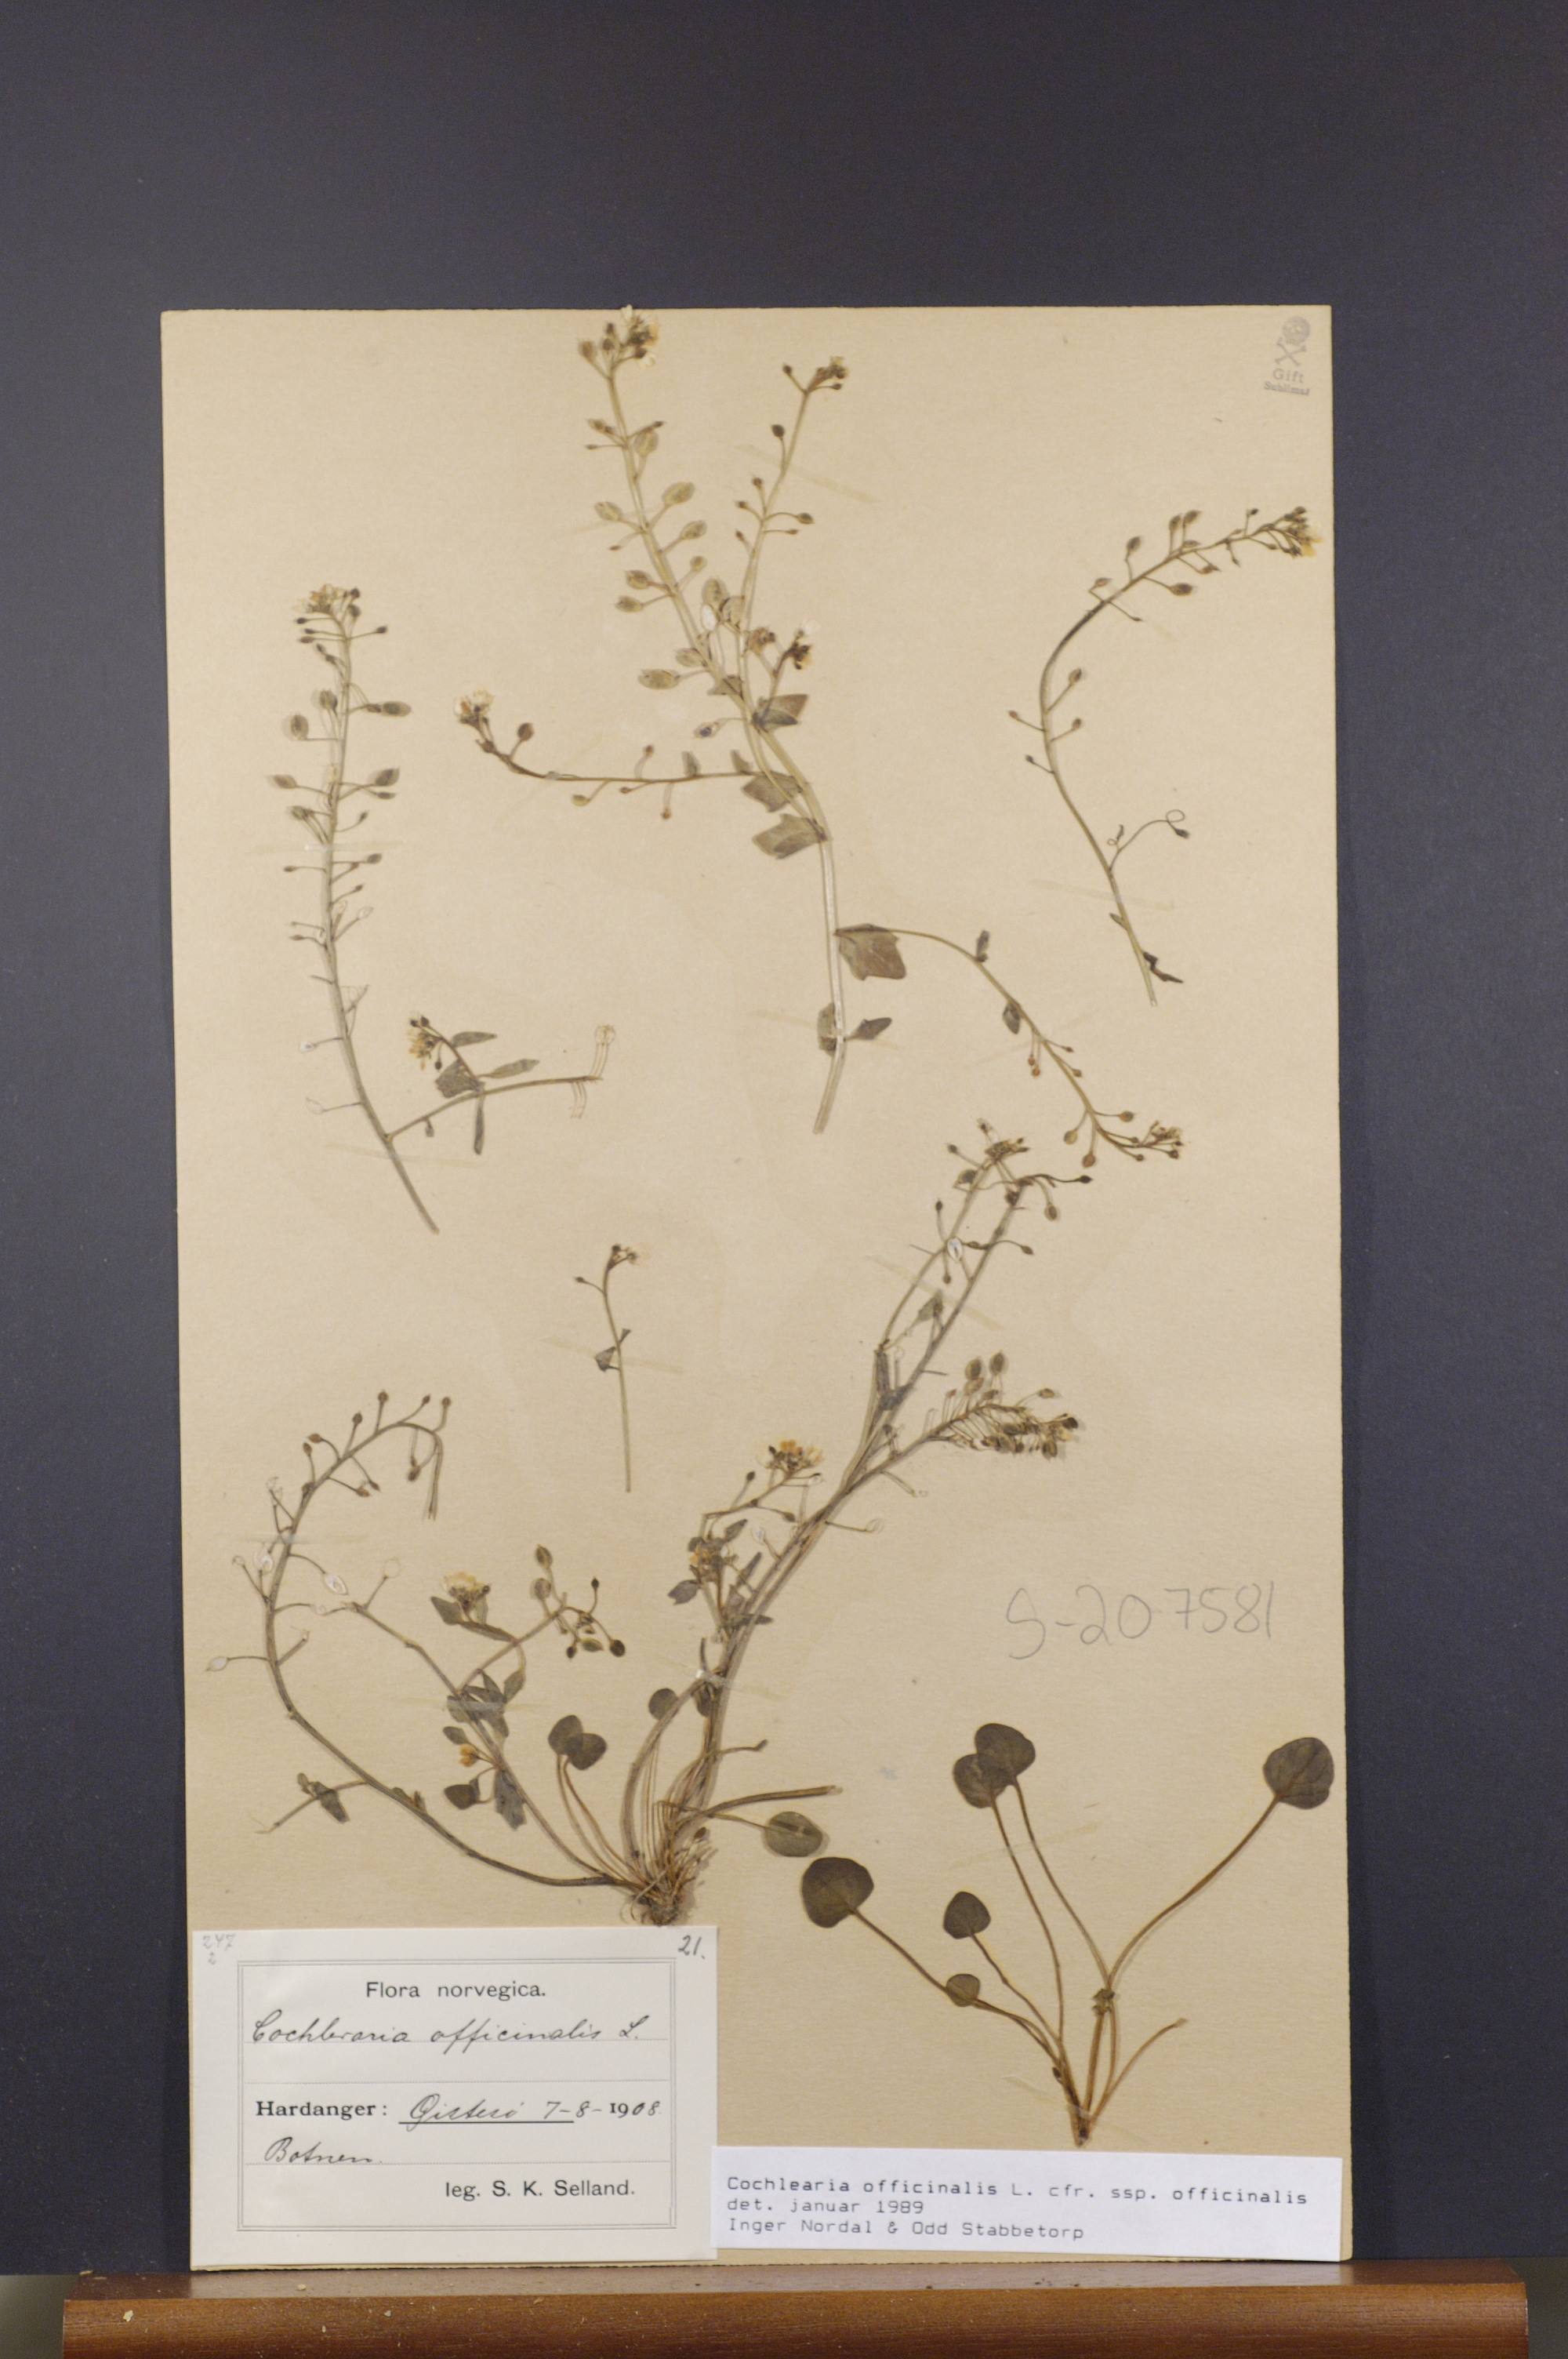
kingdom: Plantae
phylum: Tracheophyta
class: Magnoliopsida
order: Brassicales
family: Brassicaceae
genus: Cochlearia
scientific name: Cochlearia officinalis
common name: Scurvy-grass
